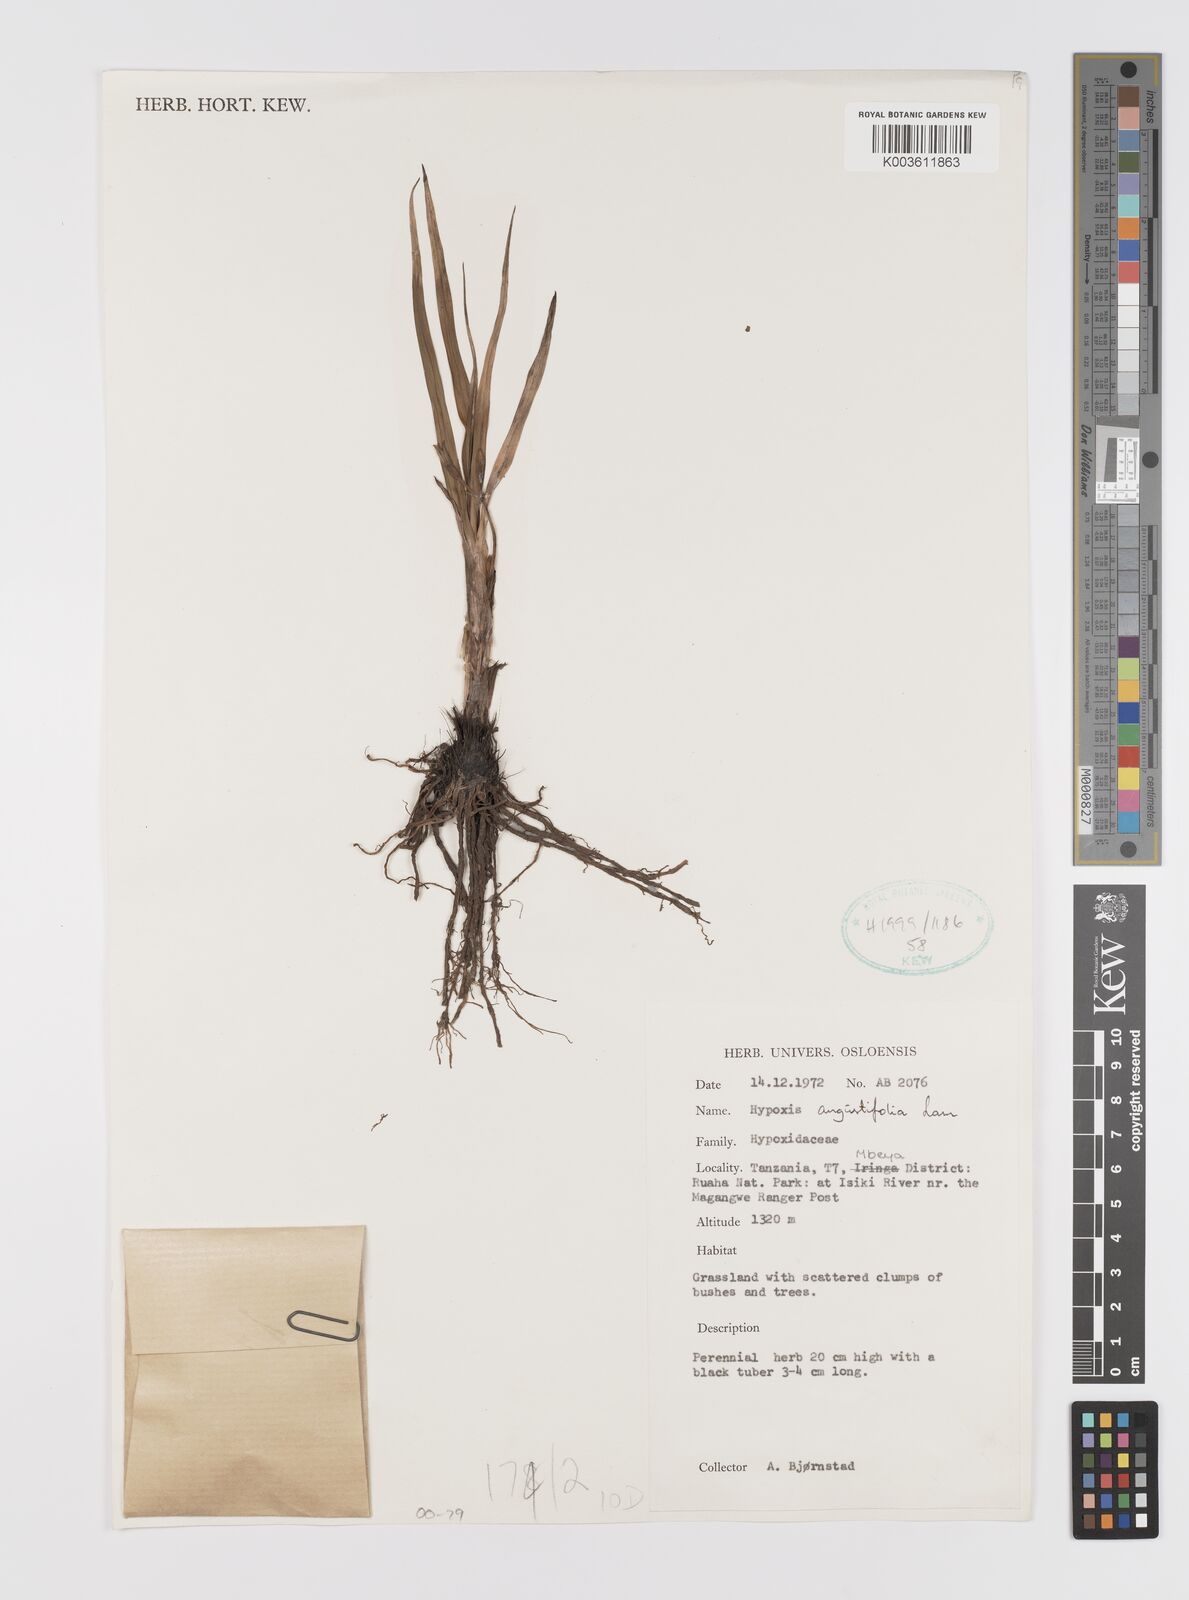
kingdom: Plantae
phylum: Tracheophyta
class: Liliopsida
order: Asparagales
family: Hypoxidaceae
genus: Hypoxis
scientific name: Hypoxis angustifolia
